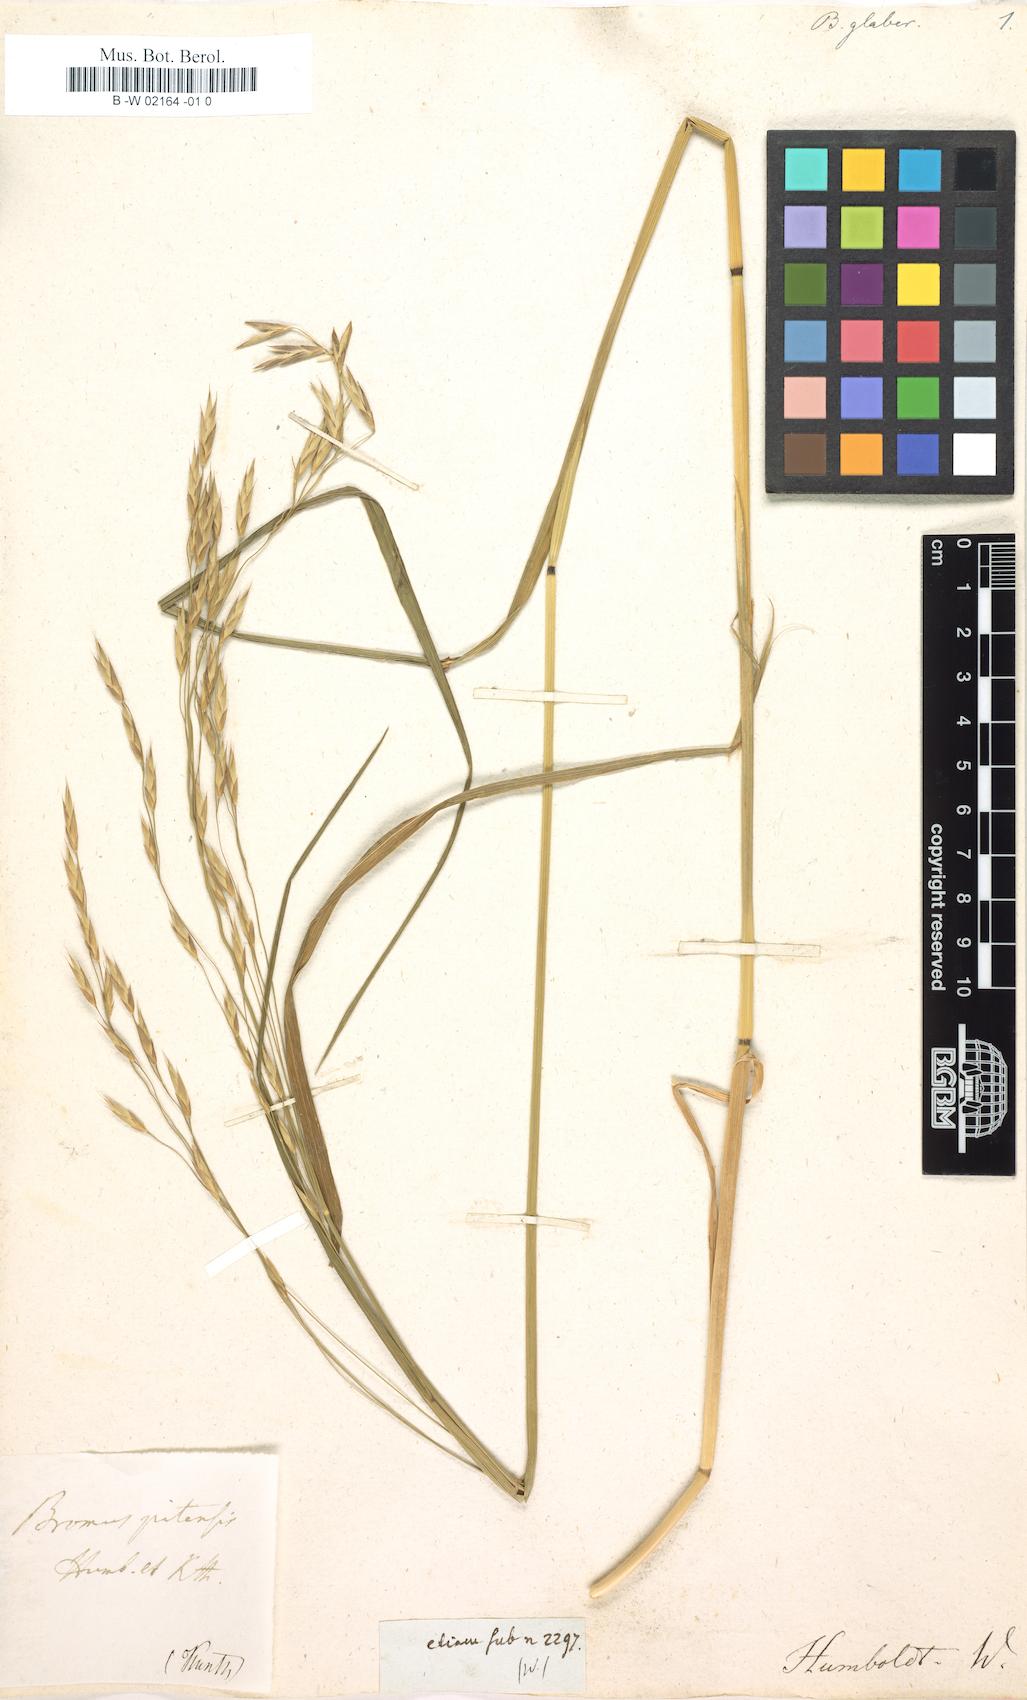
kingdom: Plantae
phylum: Tracheophyta
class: Liliopsida
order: Poales
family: Poaceae
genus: Bromus
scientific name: Bromus pitensis
